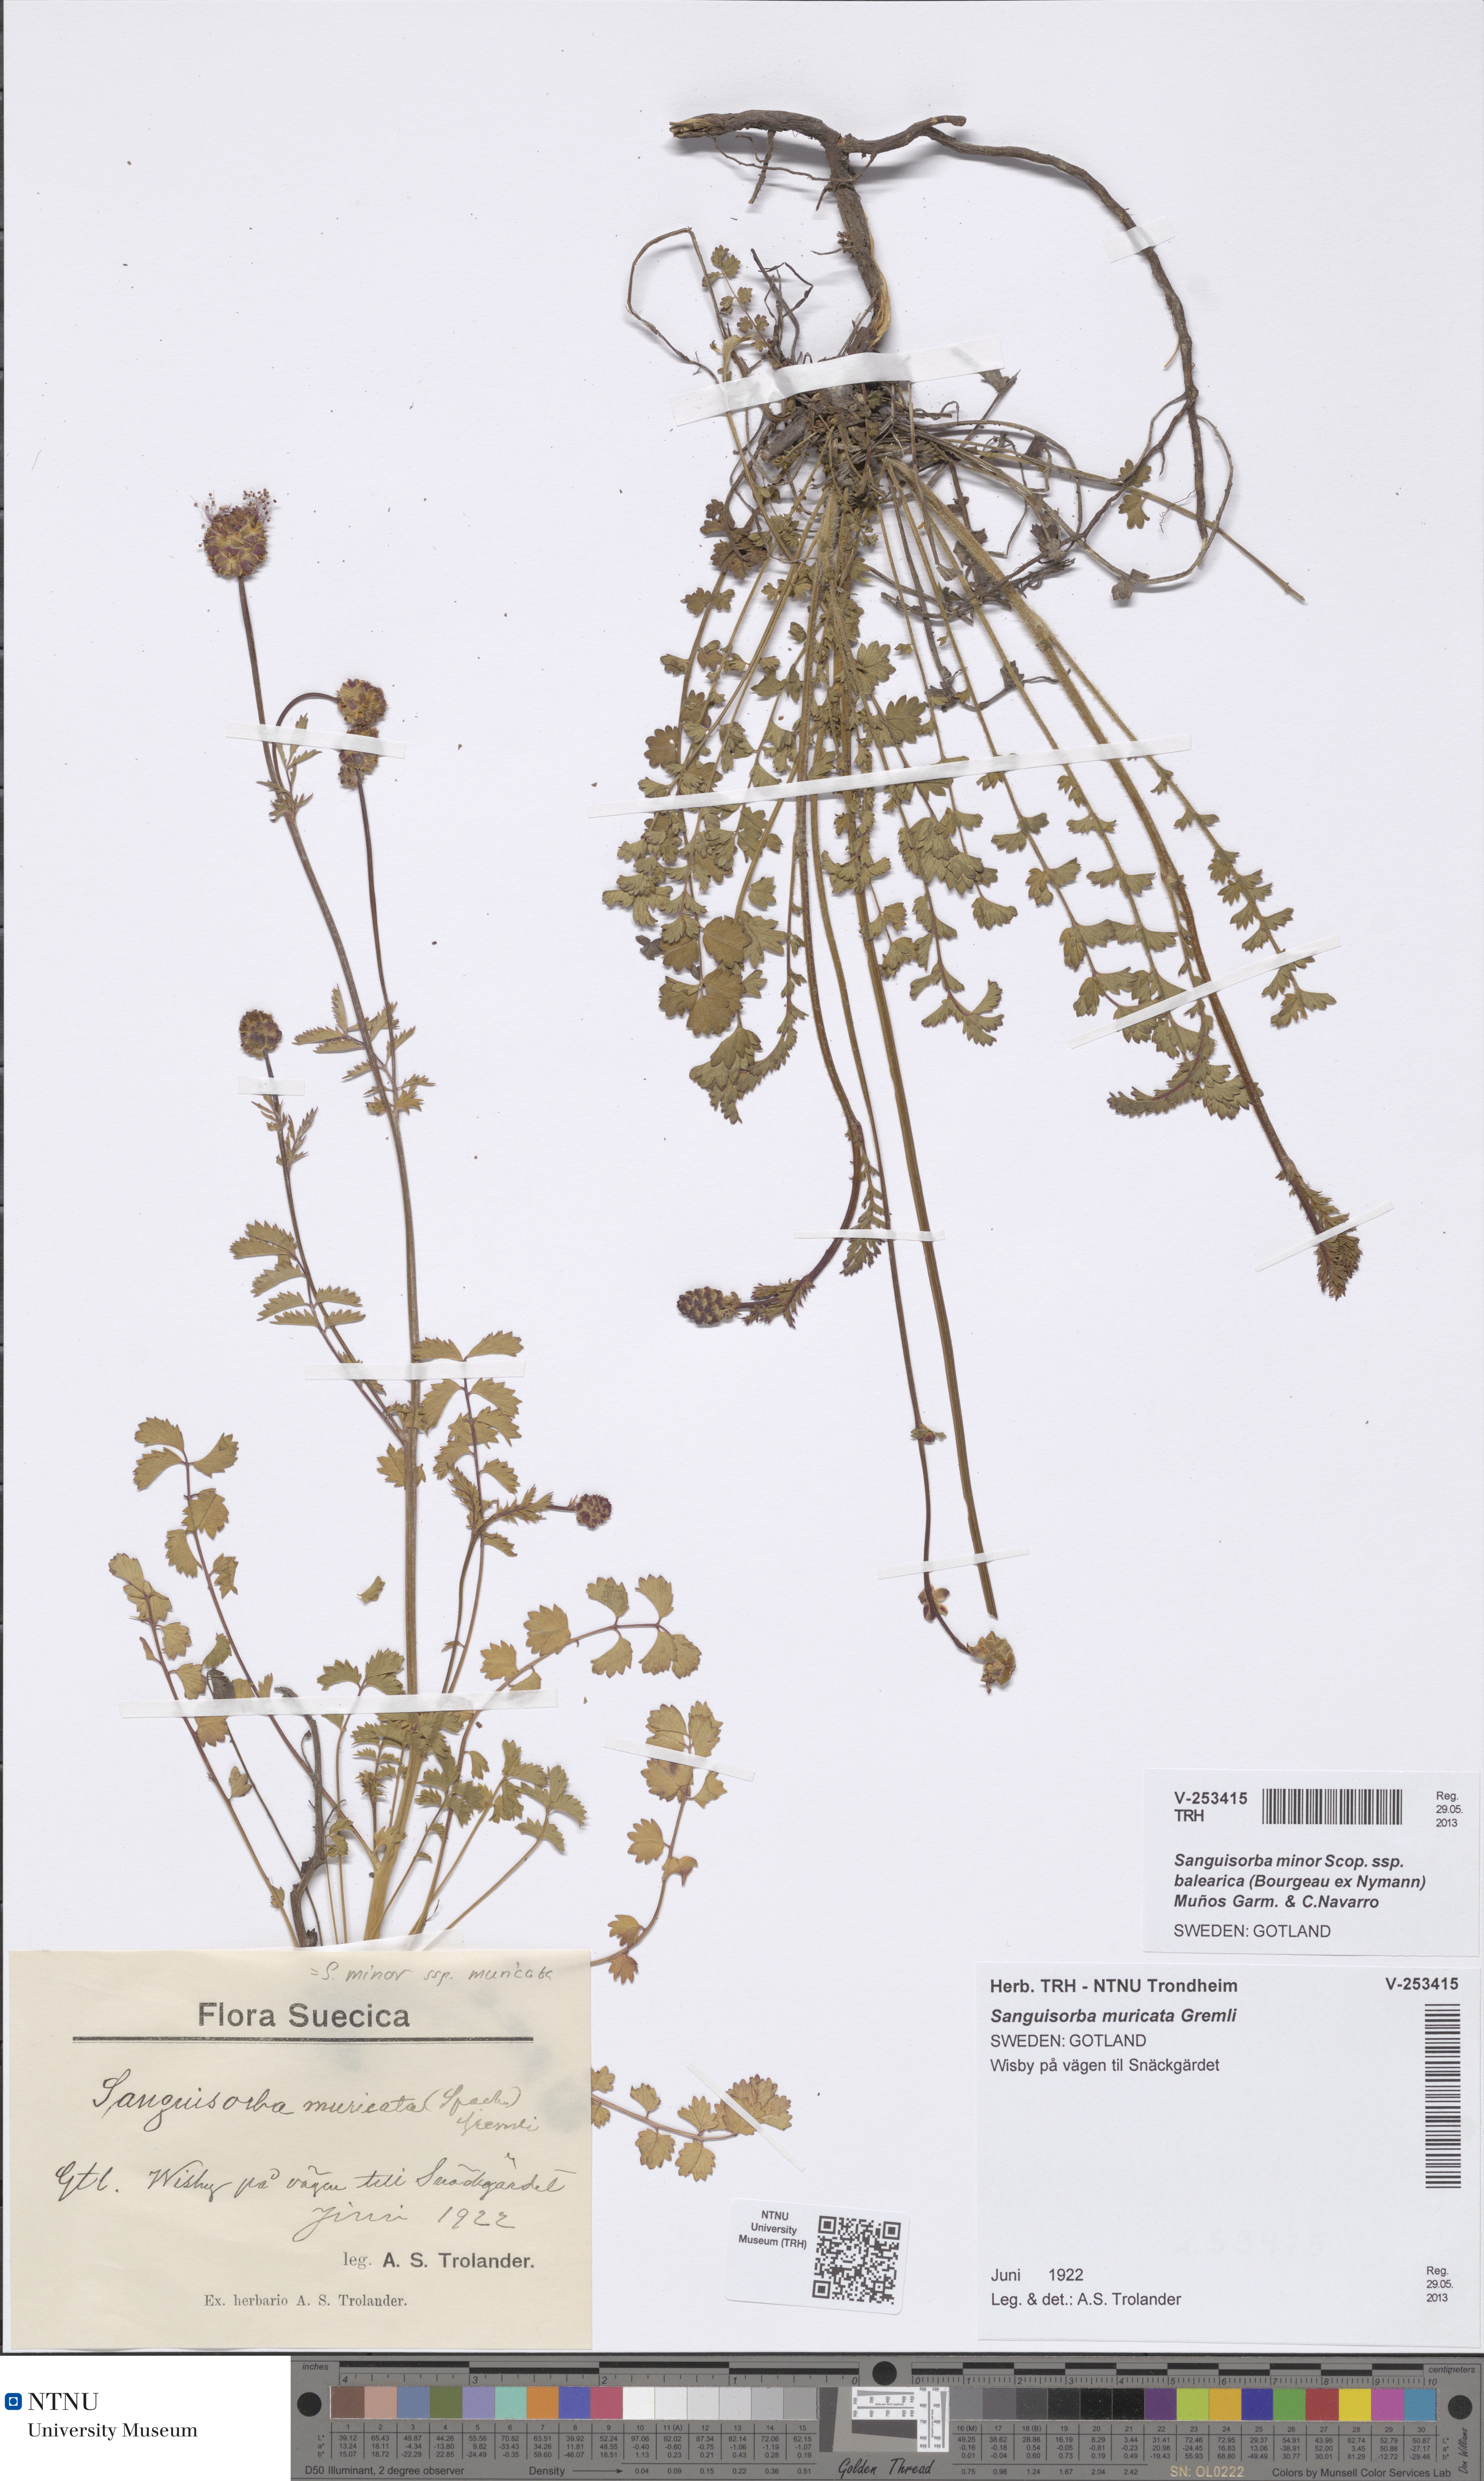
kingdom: Plantae
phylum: Tracheophyta
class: Magnoliopsida
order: Rosales
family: Rosaceae
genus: Poterium
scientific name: Poterium sanguisorba
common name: Salad burnet
